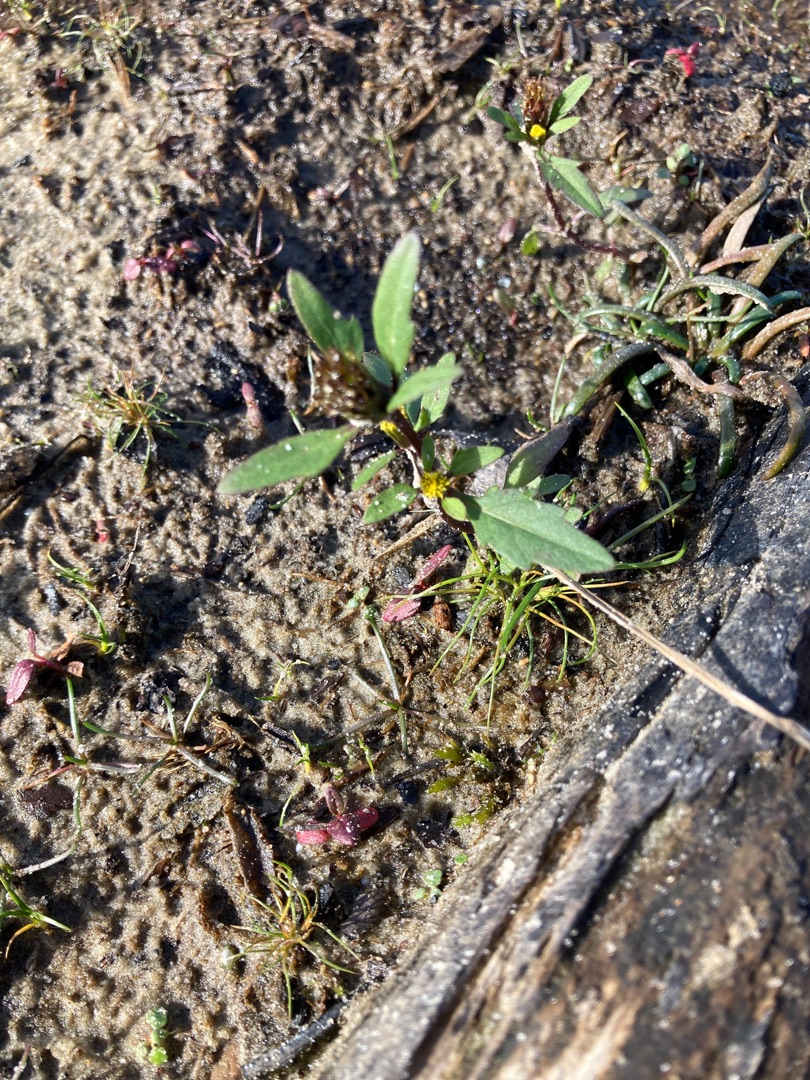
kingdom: Plantae
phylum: Tracheophyta
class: Magnoliopsida
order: Asterales
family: Asteraceae
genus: Bidens
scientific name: Bidens tripartita
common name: Fliget brøndsel
